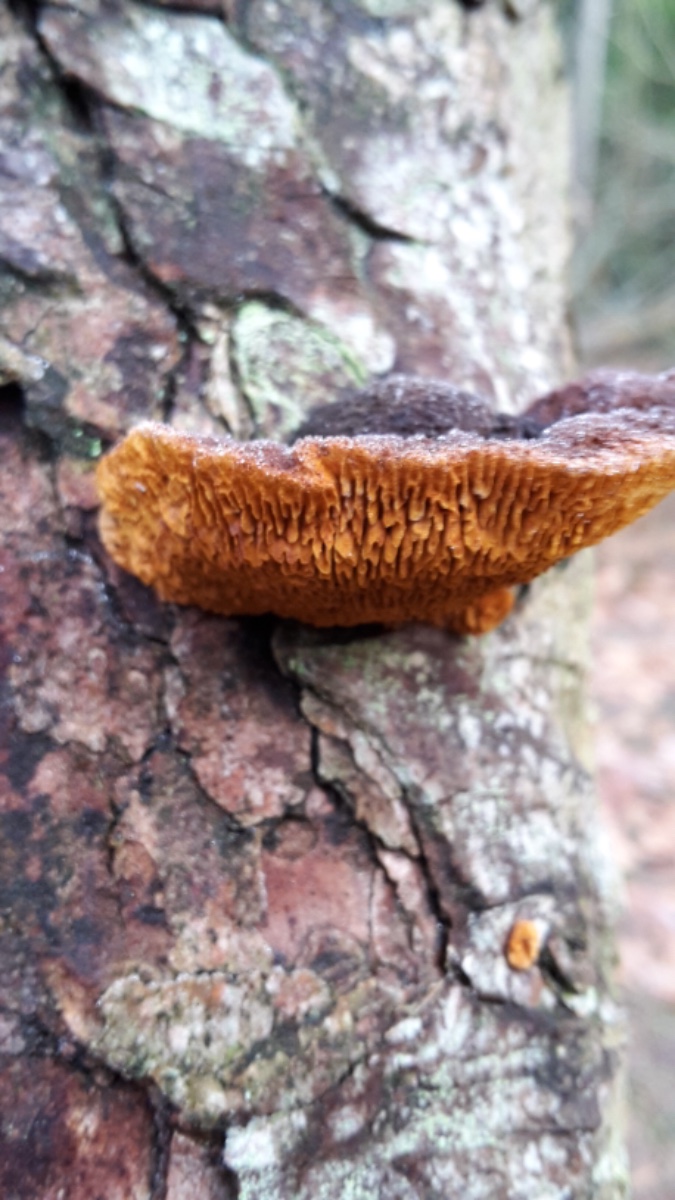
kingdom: Fungi
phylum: Basidiomycota
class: Agaricomycetes
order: Gloeophyllales
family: Gloeophyllaceae
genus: Gloeophyllum
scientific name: Gloeophyllum sepiarium
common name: fyrre-korkhat
